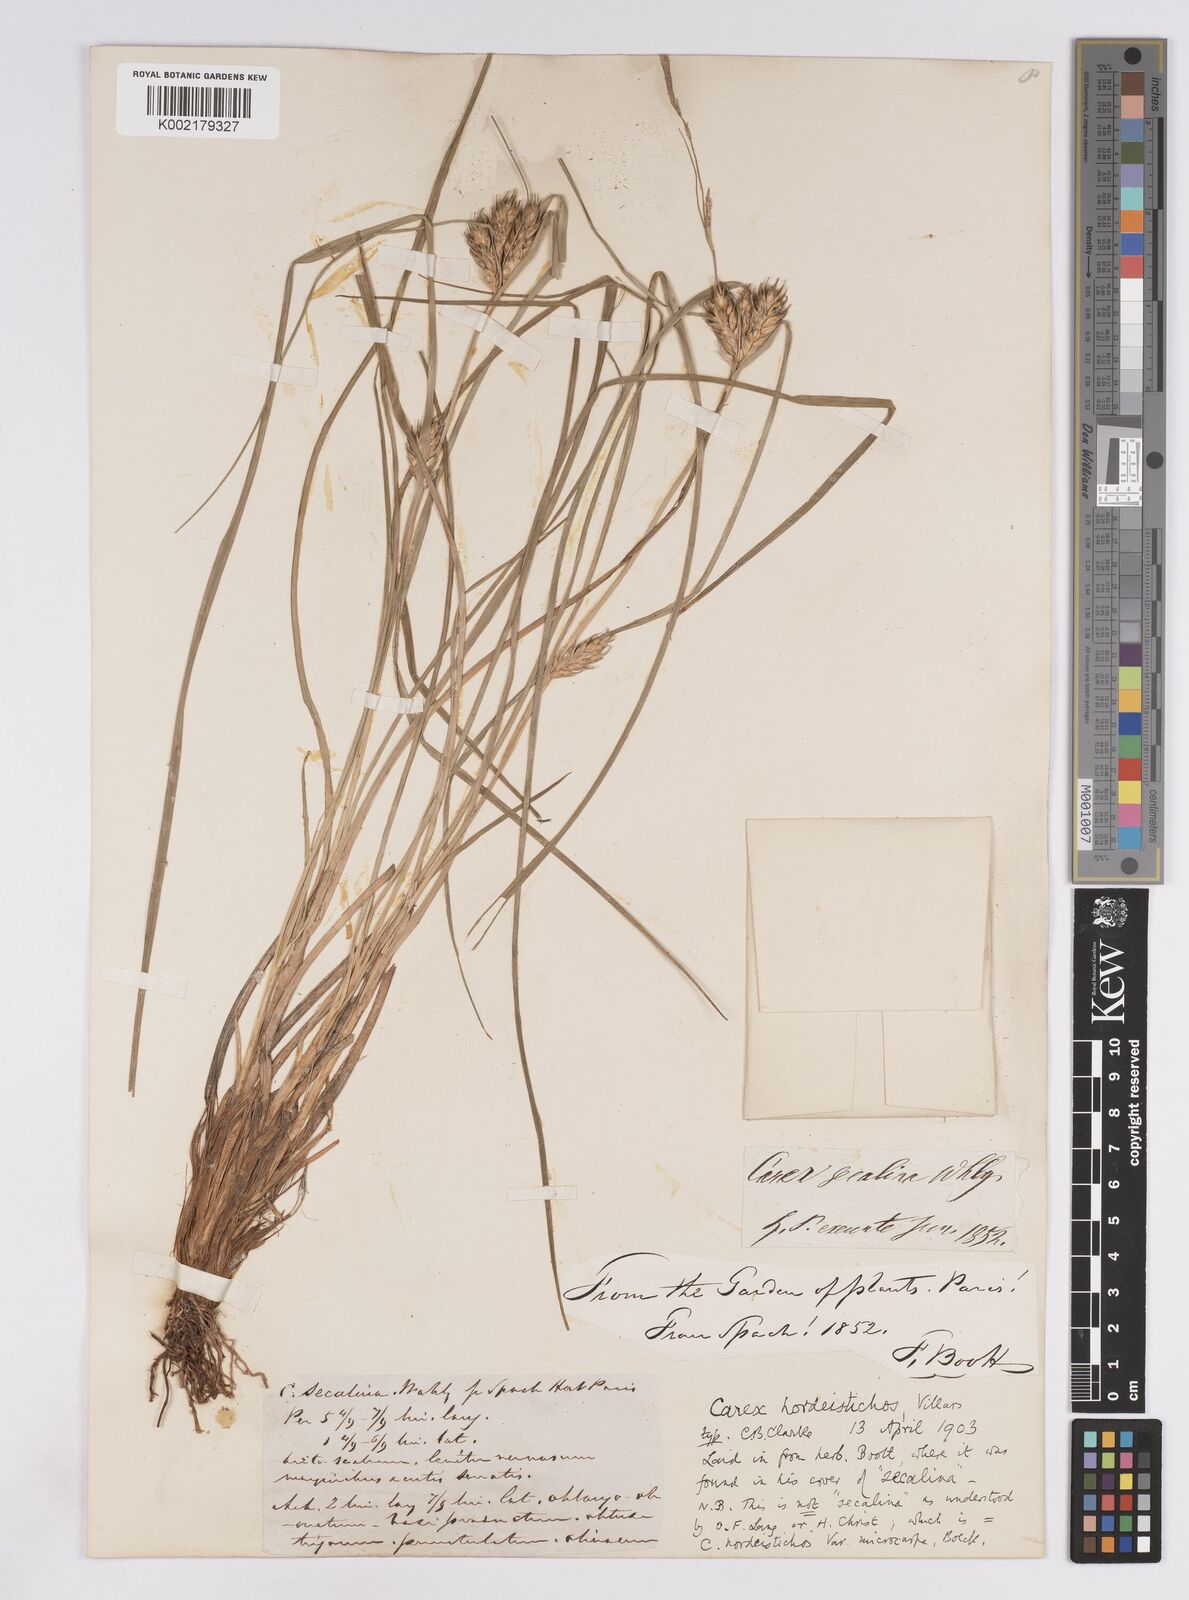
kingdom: Plantae
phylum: Tracheophyta
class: Liliopsida
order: Poales
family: Cyperaceae
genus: Carex
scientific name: Carex hordeistichos
